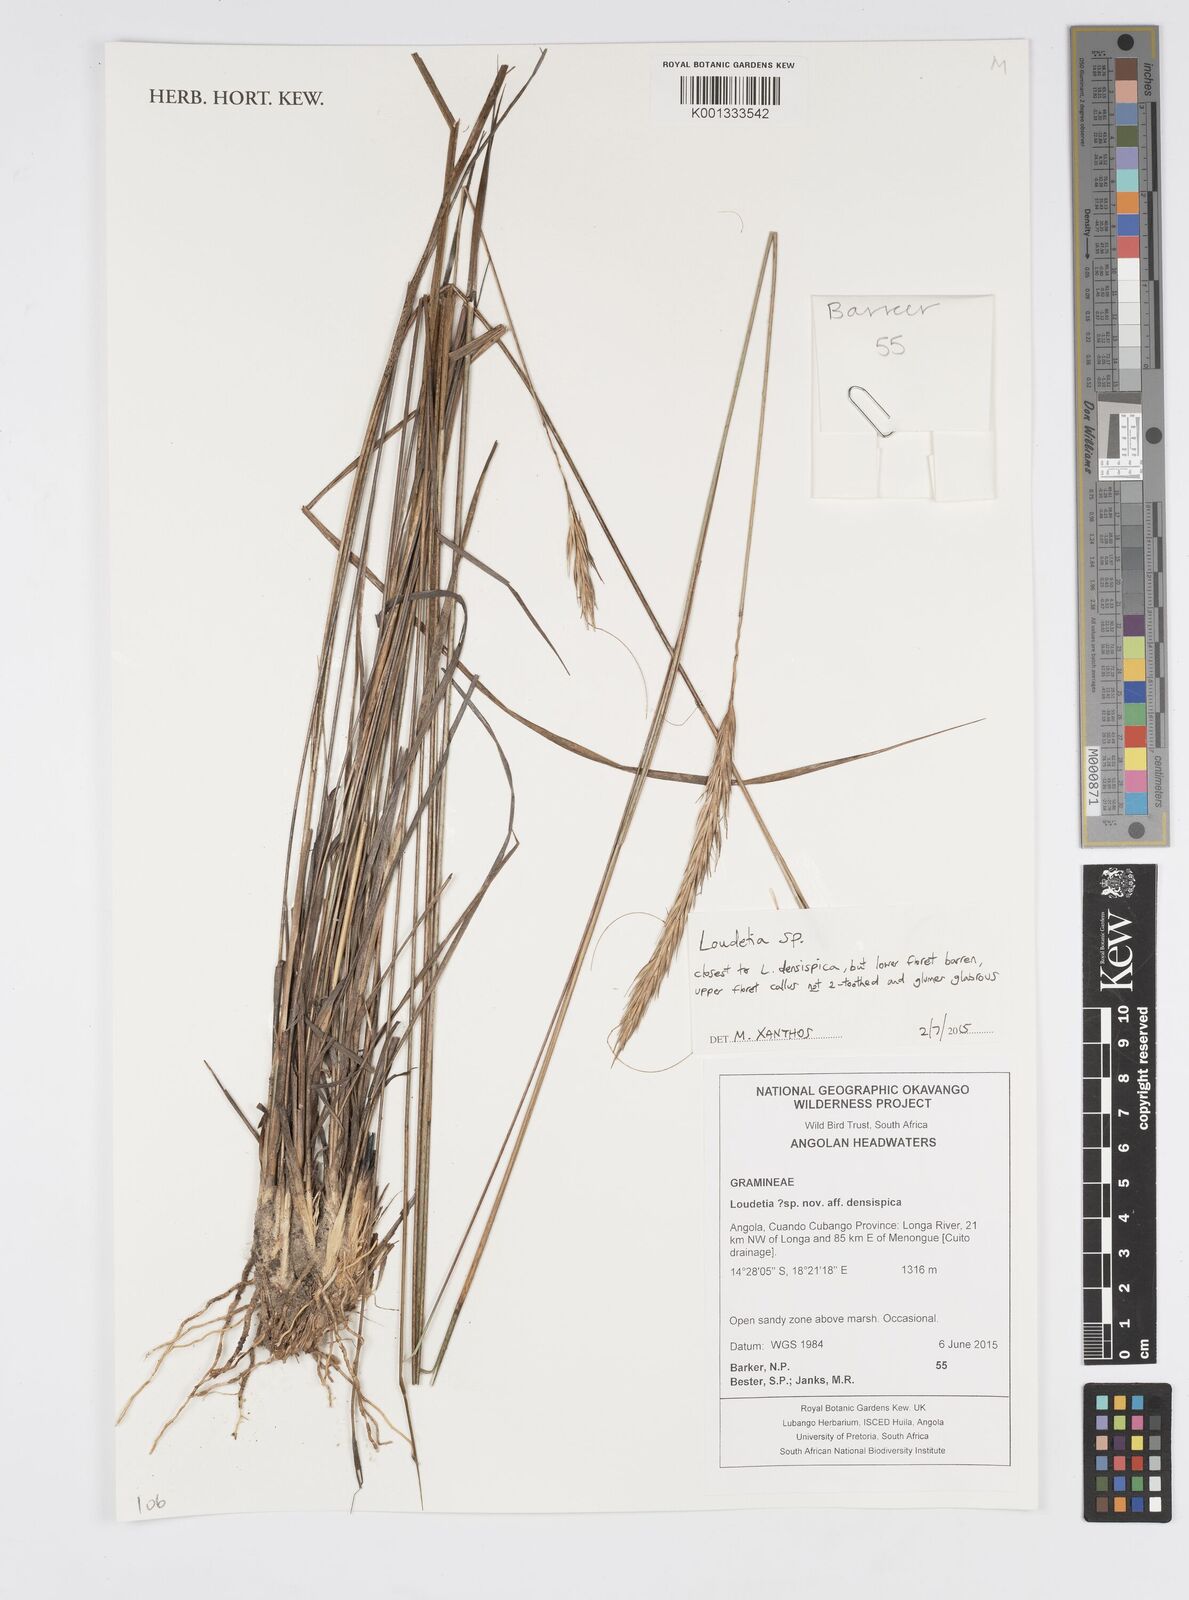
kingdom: Plantae
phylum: Tracheophyta
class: Liliopsida
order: Poales
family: Poaceae
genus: Loudetia
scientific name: Loudetia
